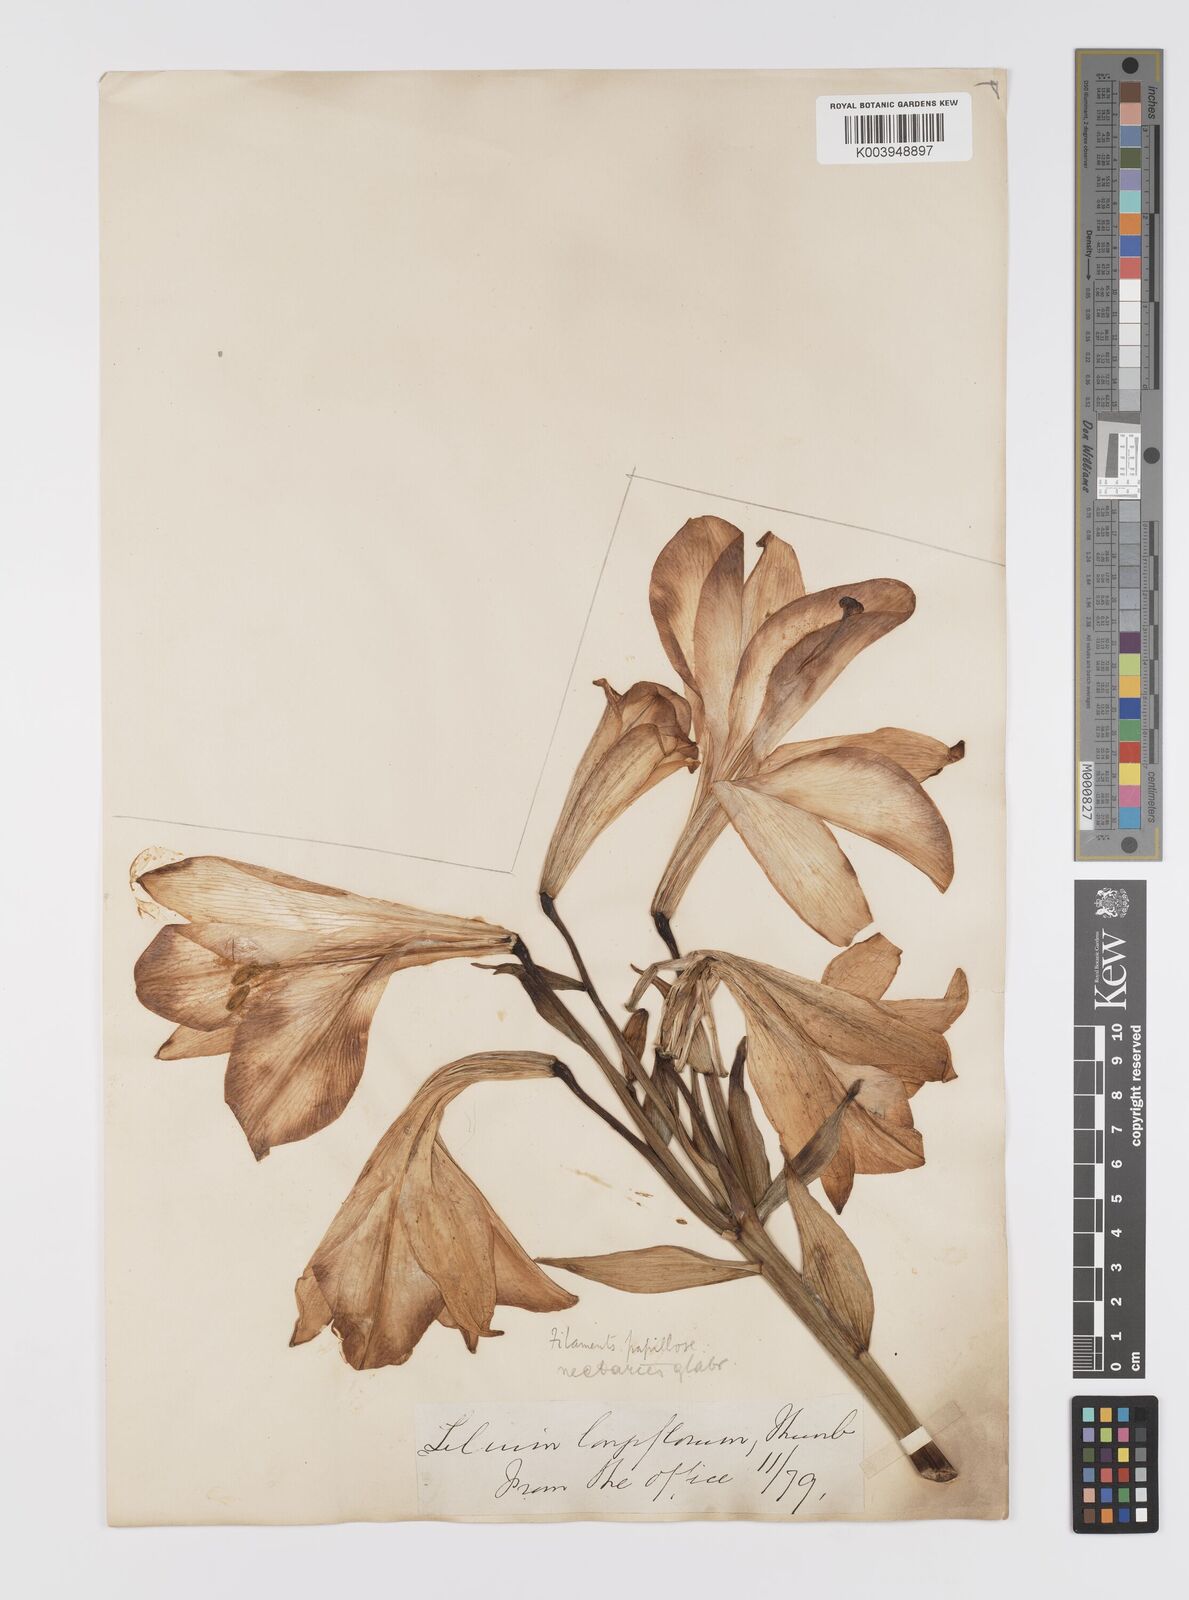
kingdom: Plantae
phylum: Tracheophyta
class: Liliopsida
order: Liliales
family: Liliaceae
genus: Lilium
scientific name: Lilium
